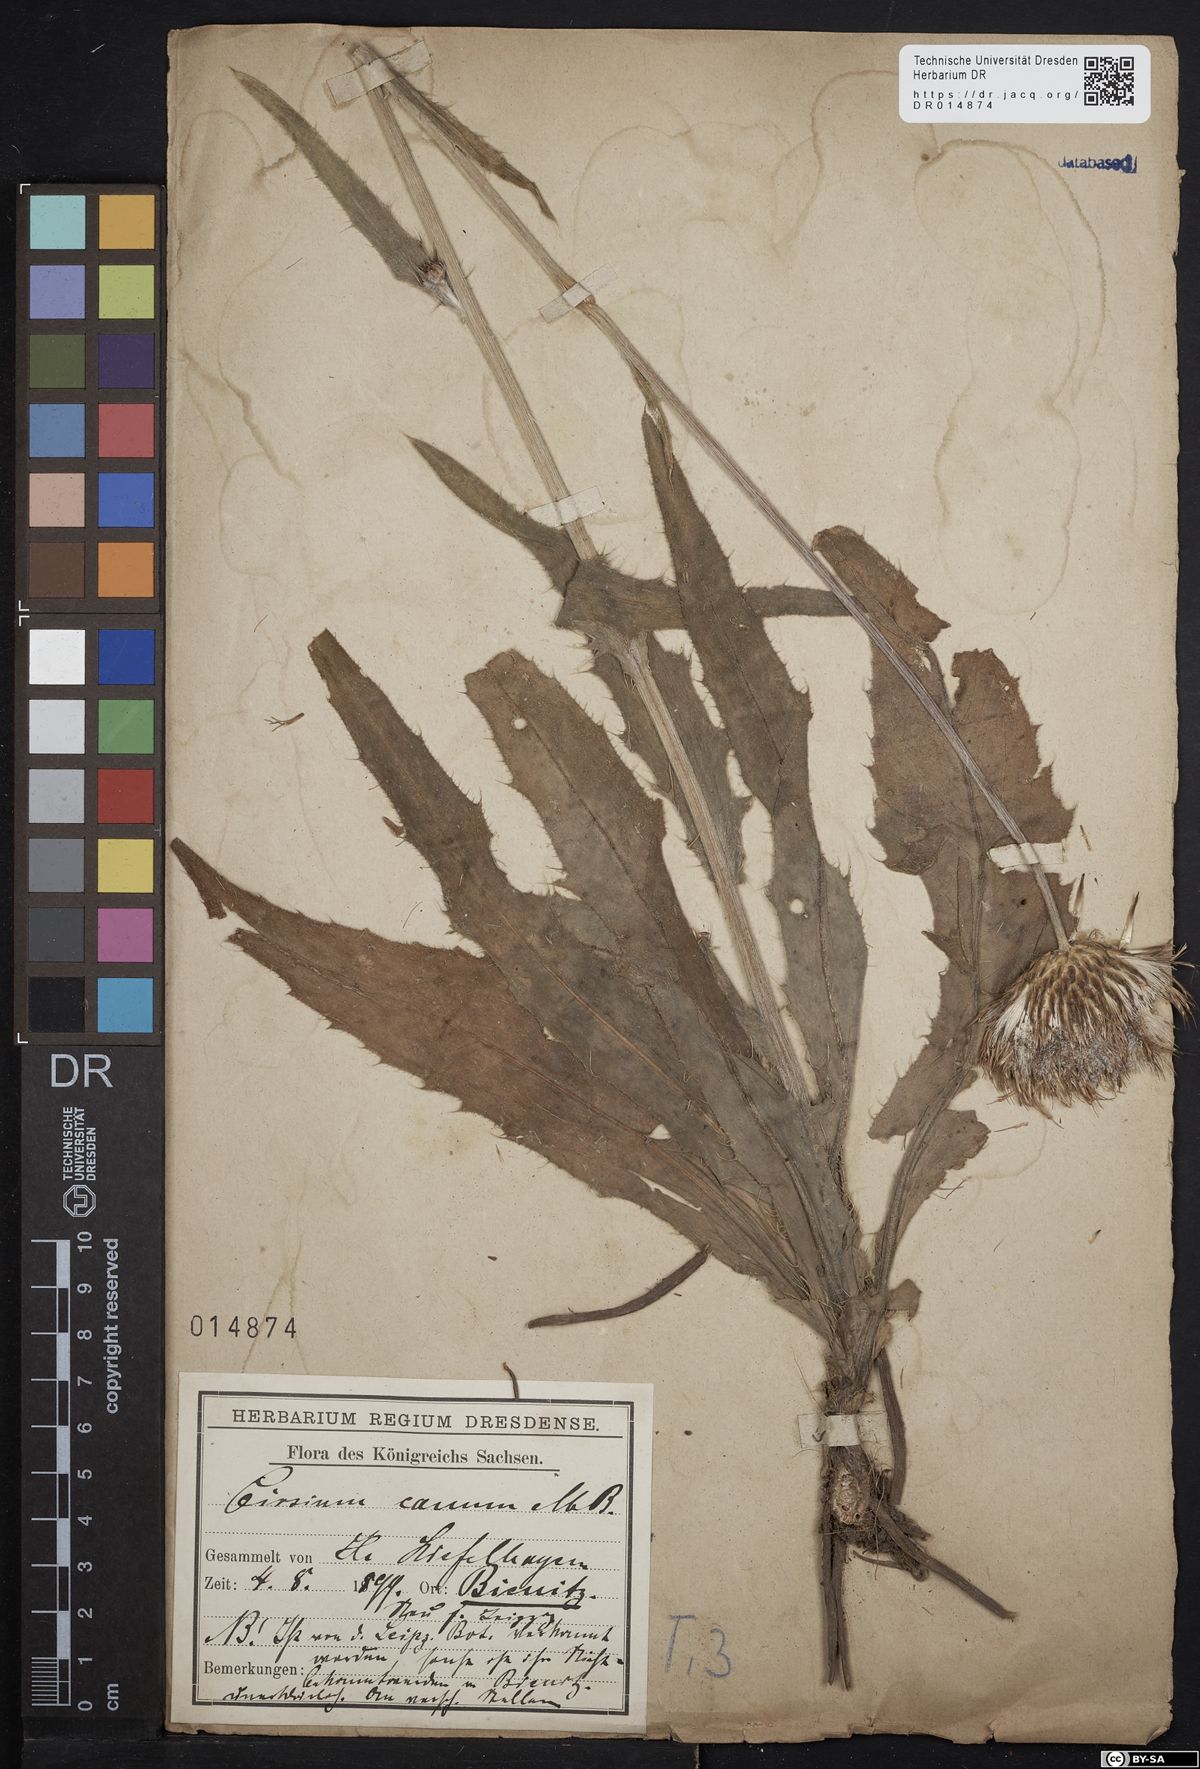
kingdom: Plantae
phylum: Tracheophyta
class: Magnoliopsida
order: Asterales
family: Asteraceae
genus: Cirsium
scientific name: Cirsium canum
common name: Queen anne's thistle
